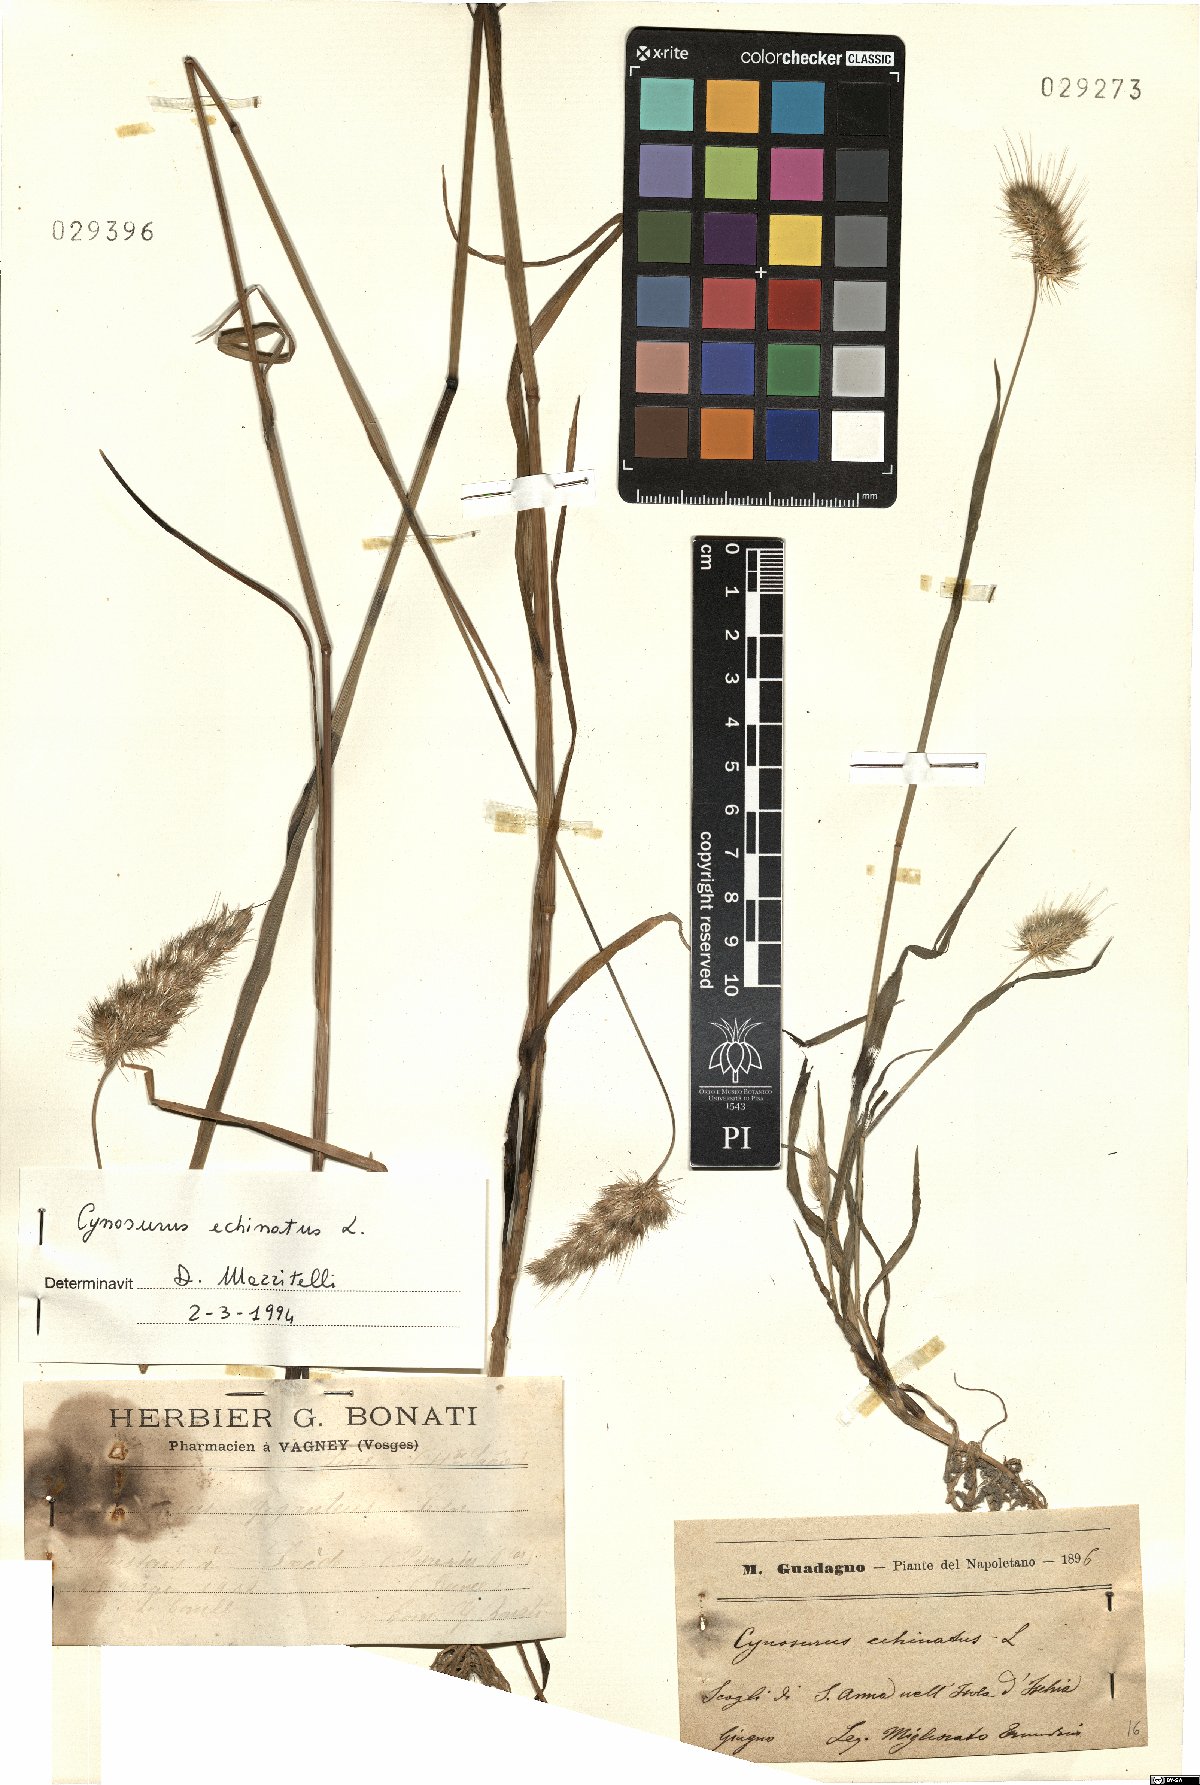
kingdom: Plantae
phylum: Tracheophyta
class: Liliopsida
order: Poales
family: Poaceae
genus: Cynosurus
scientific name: Cynosurus echinatus
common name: Rough dog's-tail
